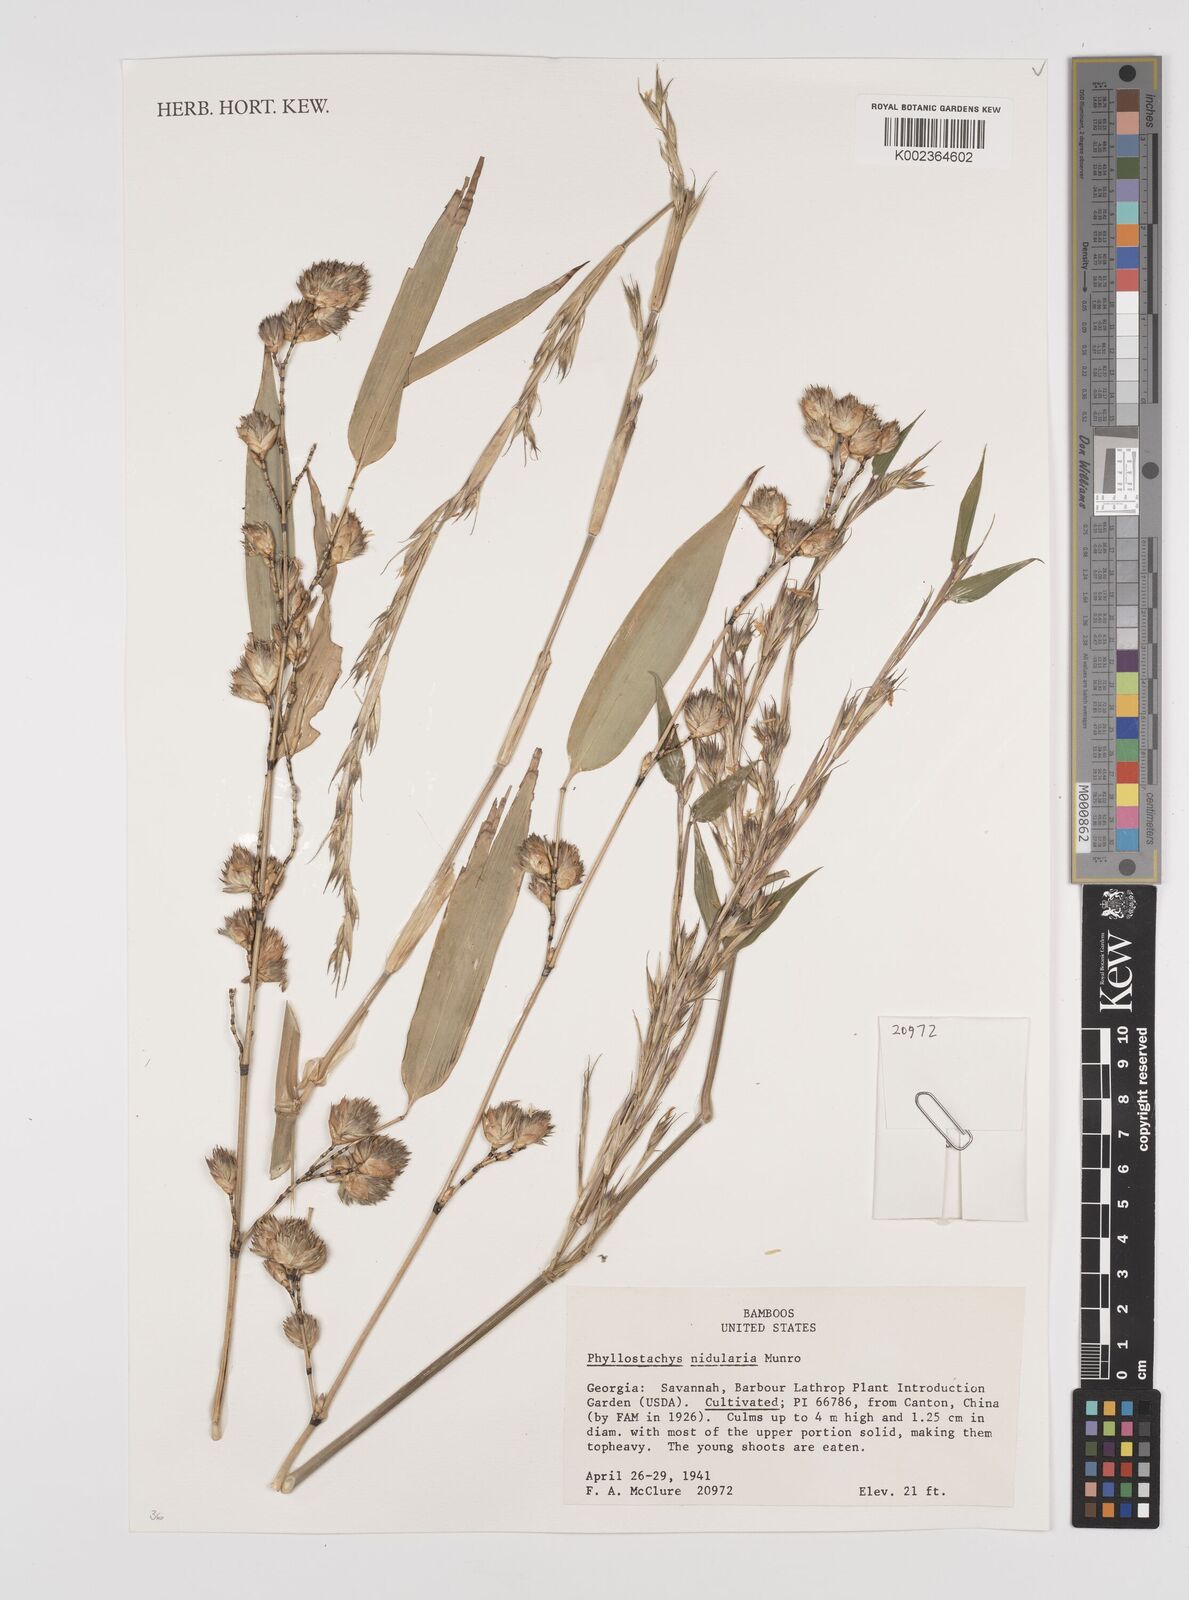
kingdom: Plantae
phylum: Tracheophyta
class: Liliopsida
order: Poales
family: Poaceae
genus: Phyllostachys
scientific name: Phyllostachys nidularia
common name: Broom bamboo
